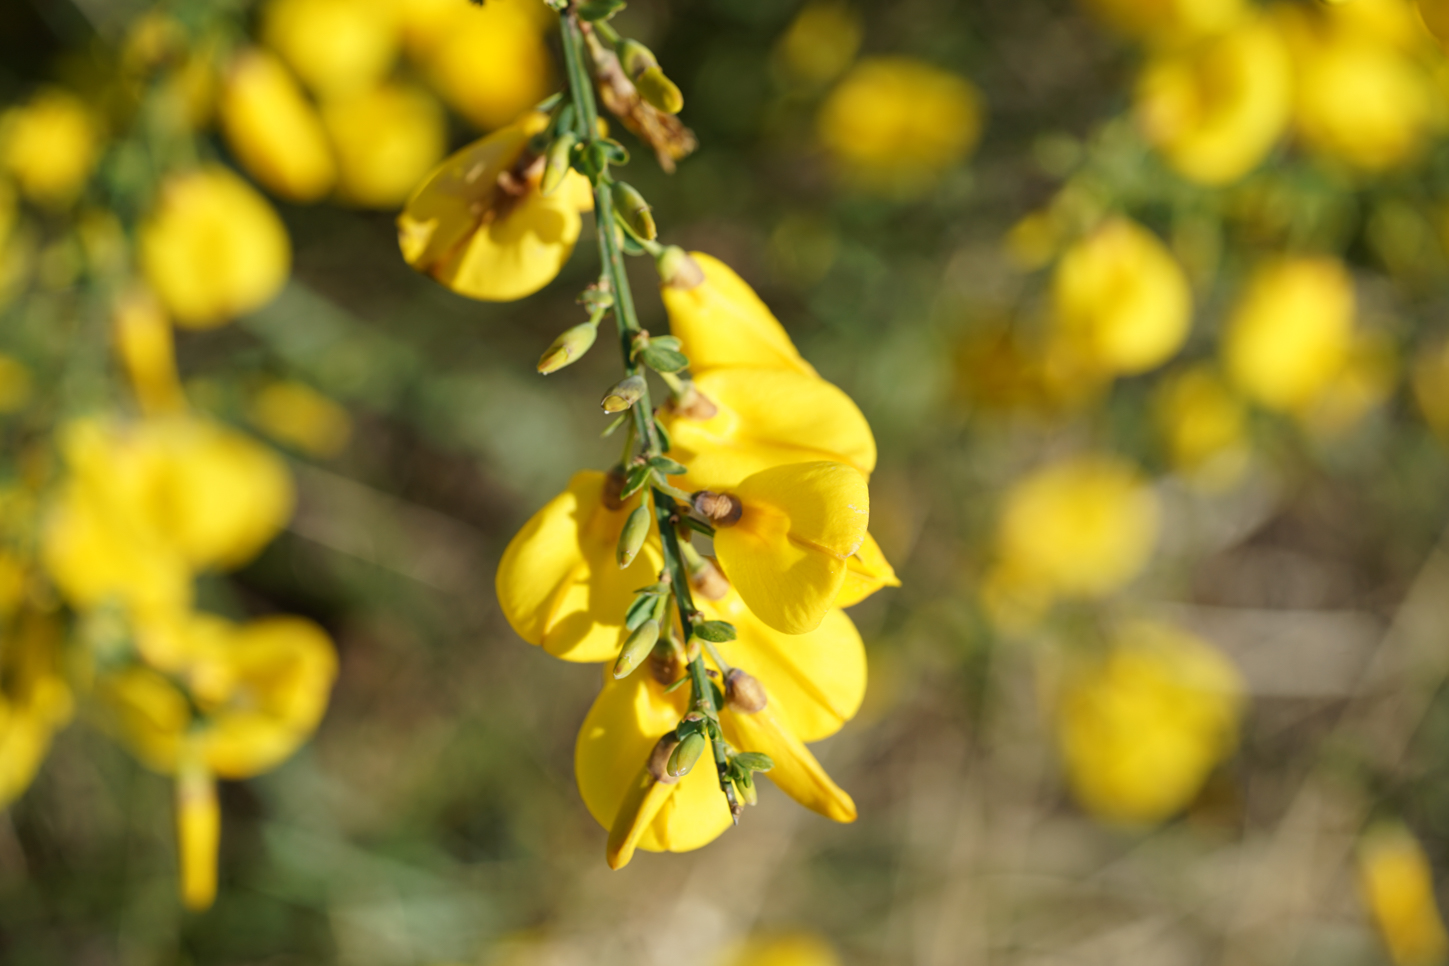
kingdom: Plantae
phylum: Tracheophyta
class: Magnoliopsida
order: Fabales
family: Fabaceae
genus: Cytisus
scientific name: Cytisus scoparius
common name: Scotch broom
